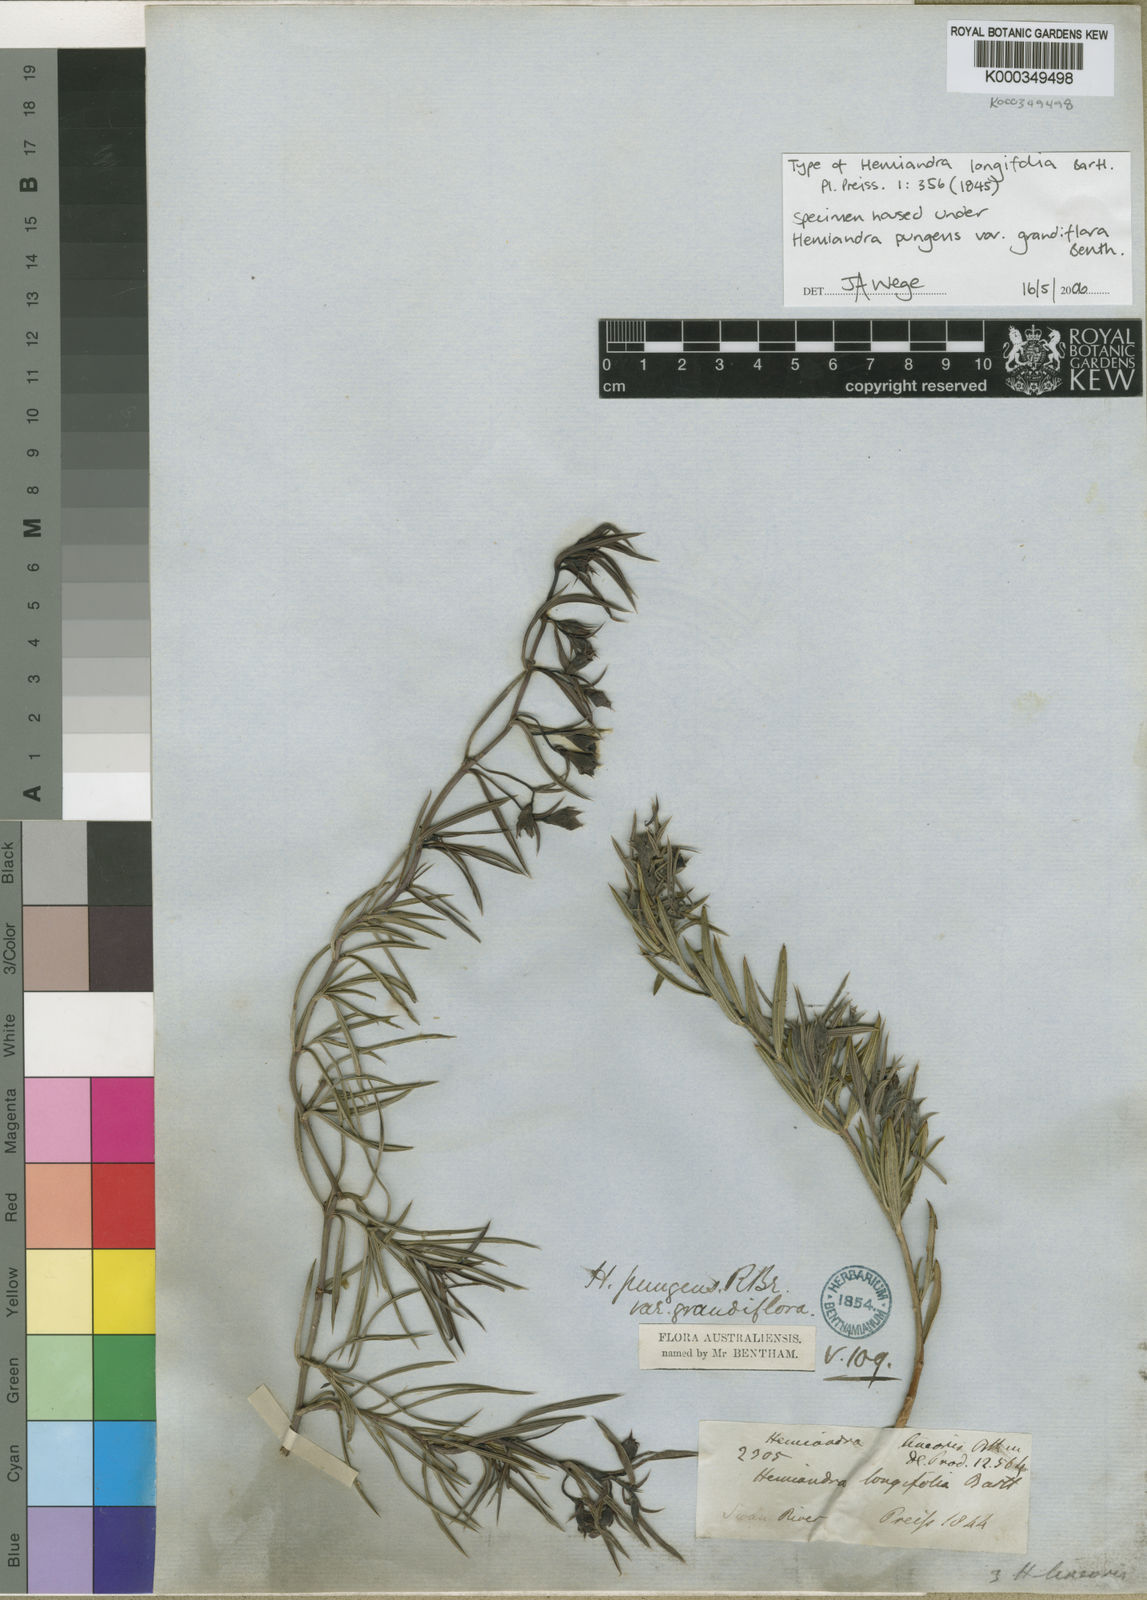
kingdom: Plantae
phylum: Tracheophyta
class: Magnoliopsida
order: Lamiales
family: Lamiaceae
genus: Hemiandra
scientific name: Hemiandra pungens
